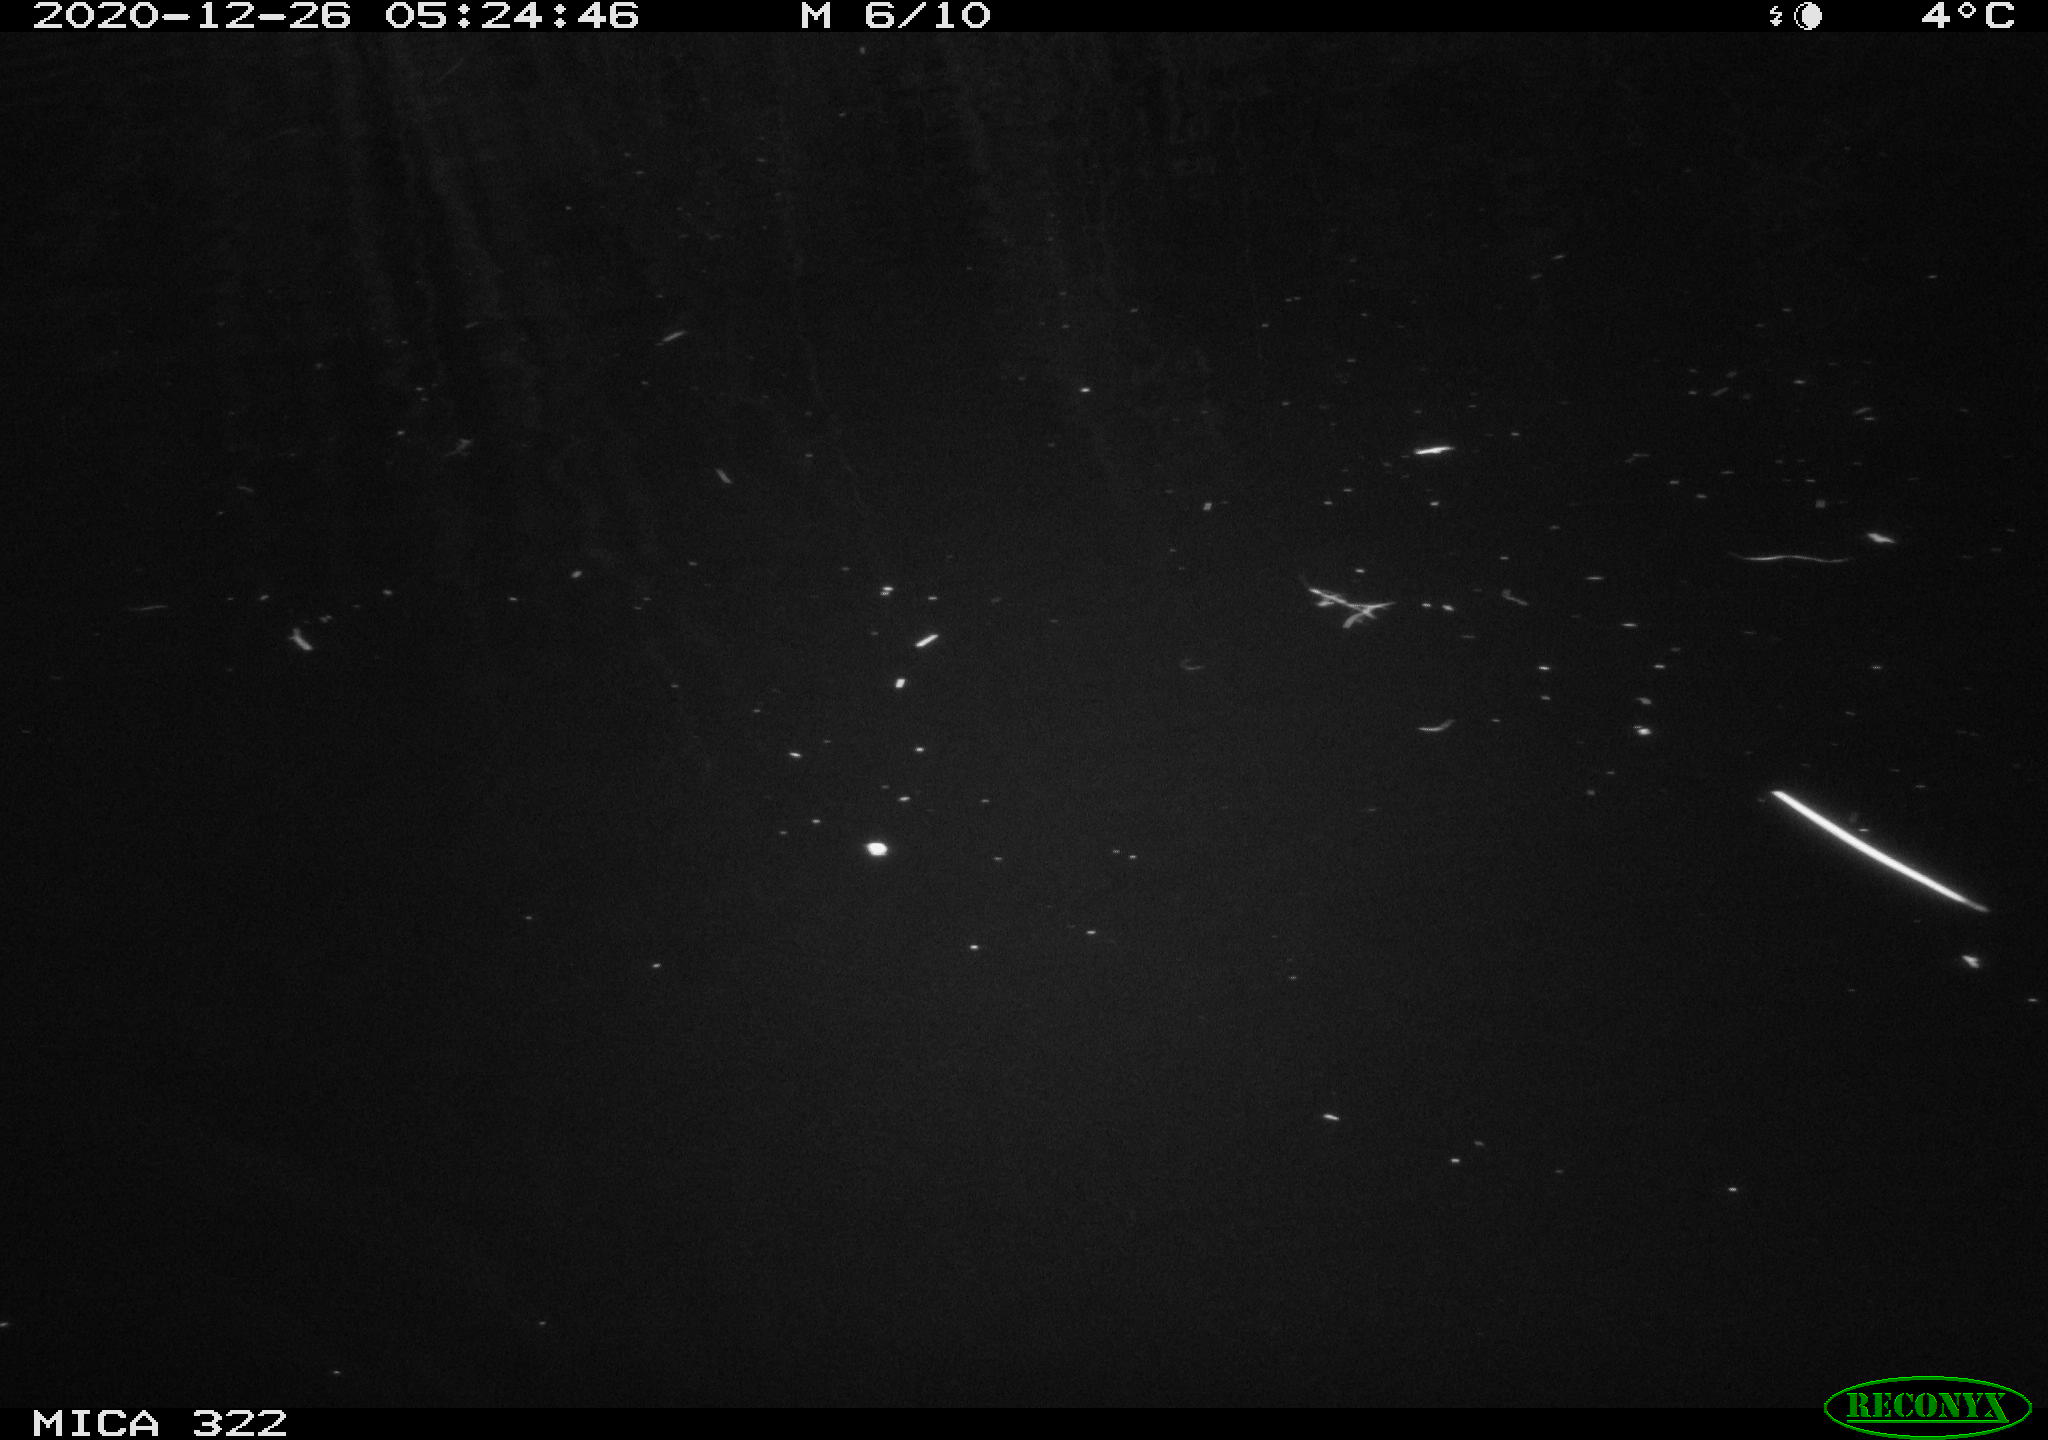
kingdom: Animalia
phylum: Chordata
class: Mammalia
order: Rodentia
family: Cricetidae
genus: Ondatra
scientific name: Ondatra zibethicus
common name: Muskrat
